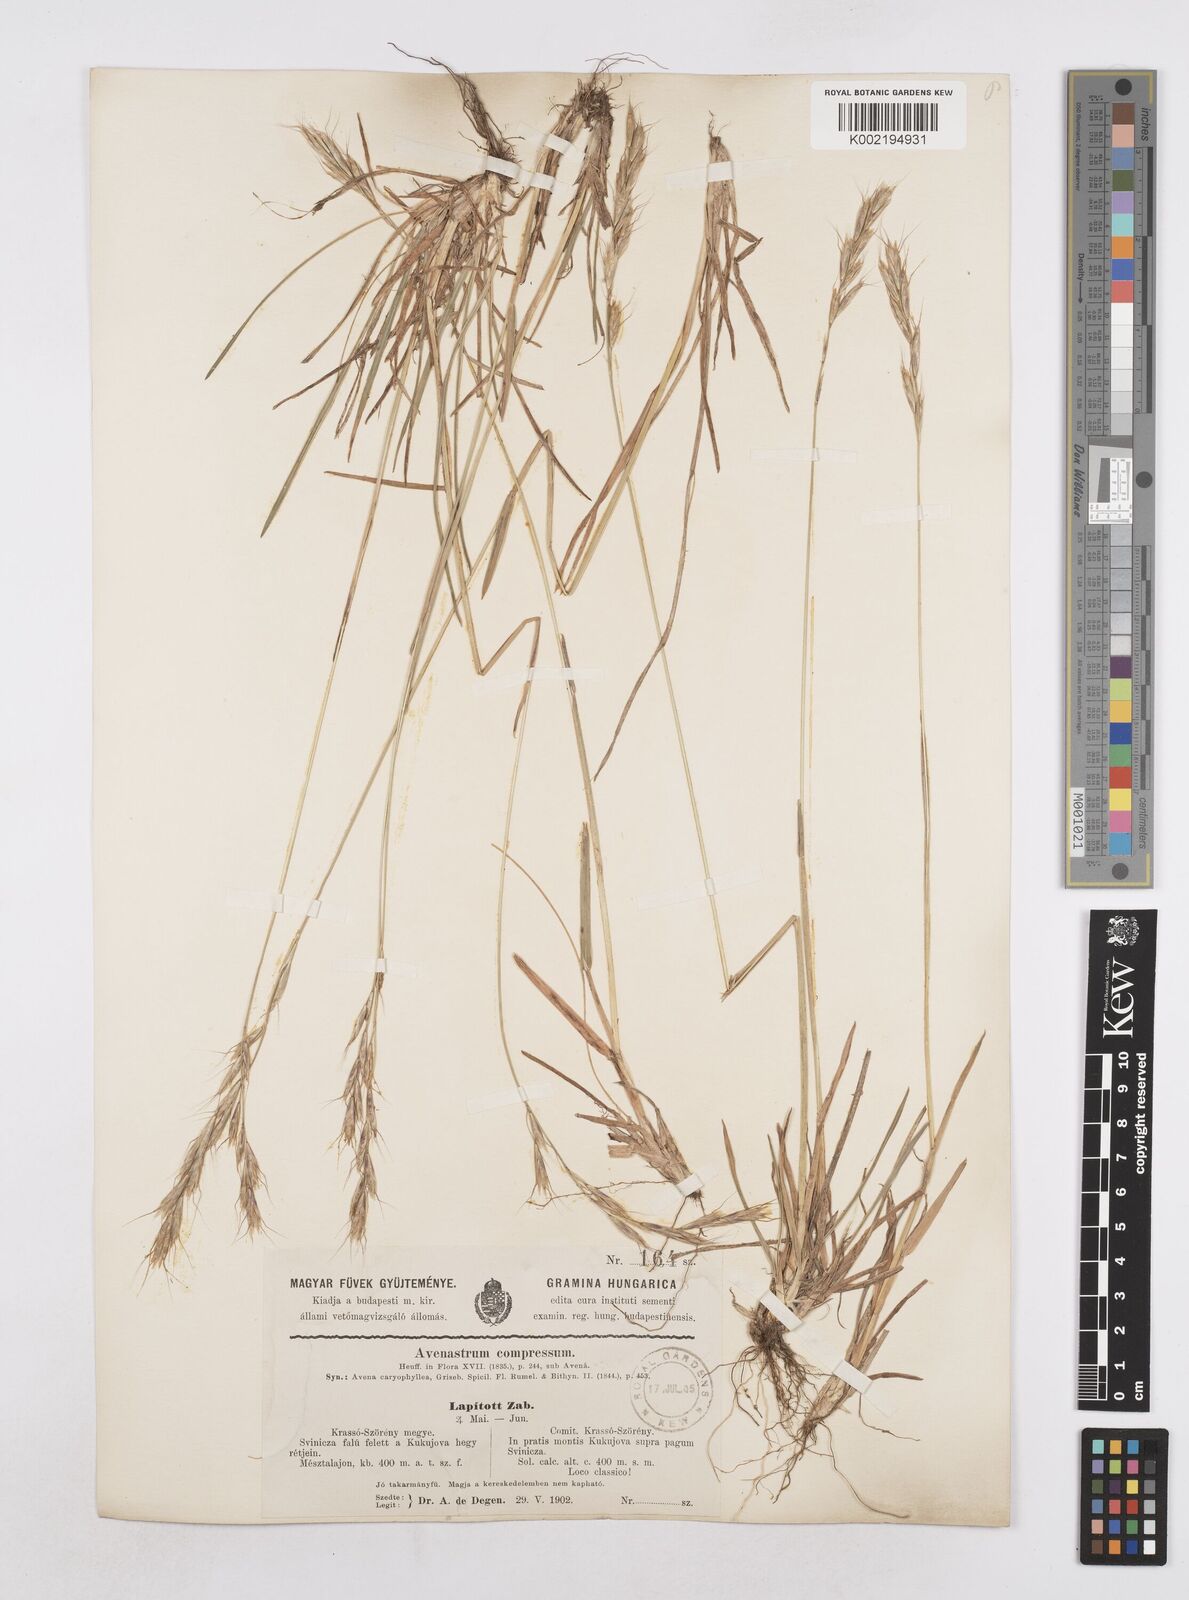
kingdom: Plantae
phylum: Tracheophyta
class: Liliopsida
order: Poales
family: Poaceae
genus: Helictochloa
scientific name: Helictochloa compressa
